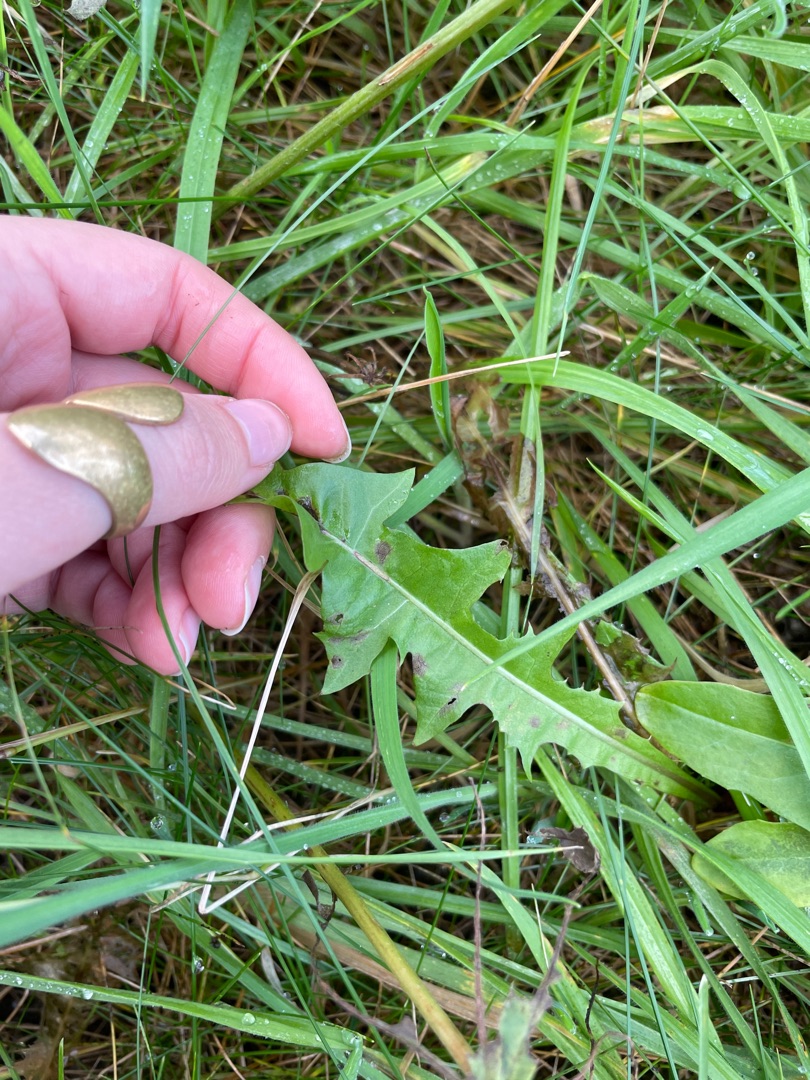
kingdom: Plantae
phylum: Tracheophyta
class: Magnoliopsida
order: Asterales
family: Asteraceae
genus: Taraxacum
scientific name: Taraxacum
